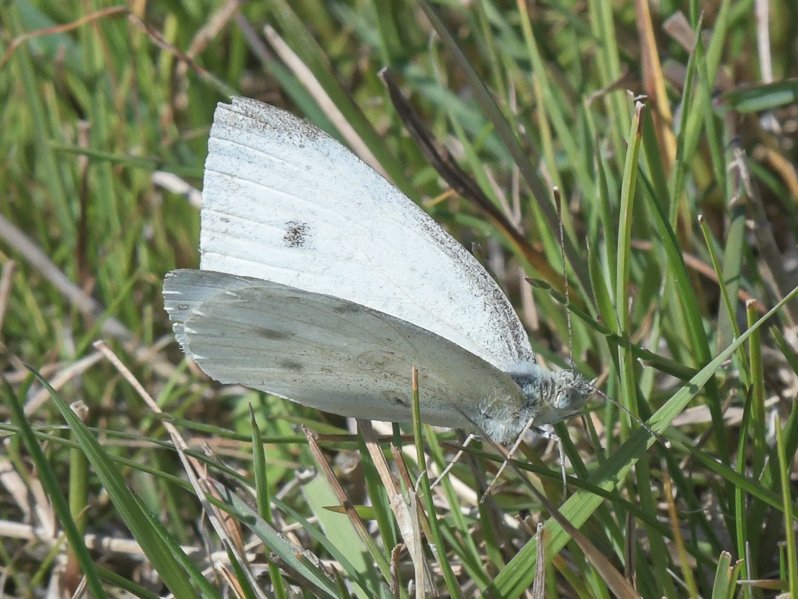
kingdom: Animalia
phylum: Arthropoda
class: Insecta
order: Lepidoptera
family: Pieridae
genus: Pieris
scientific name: Pieris rapae
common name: Cabbage White
